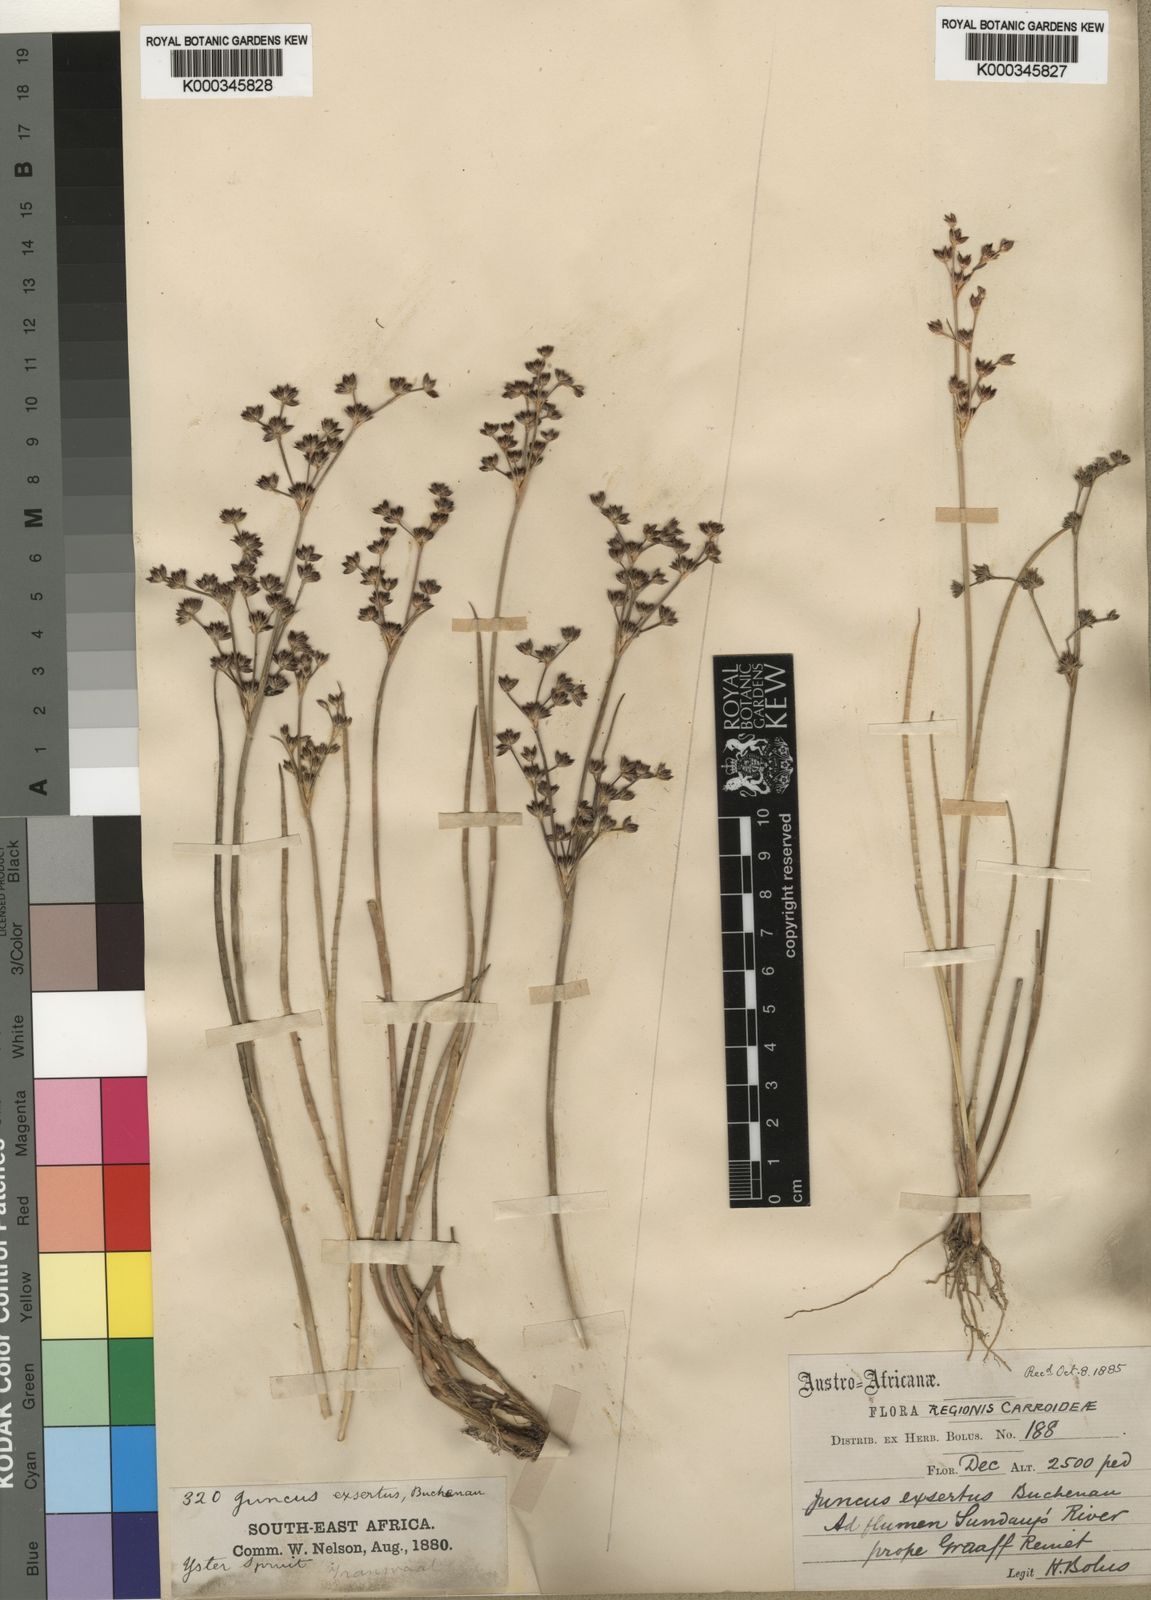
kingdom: Plantae
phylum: Tracheophyta
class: Liliopsida
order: Poales
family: Juncaceae
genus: Juncus
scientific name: Juncus exsertus
